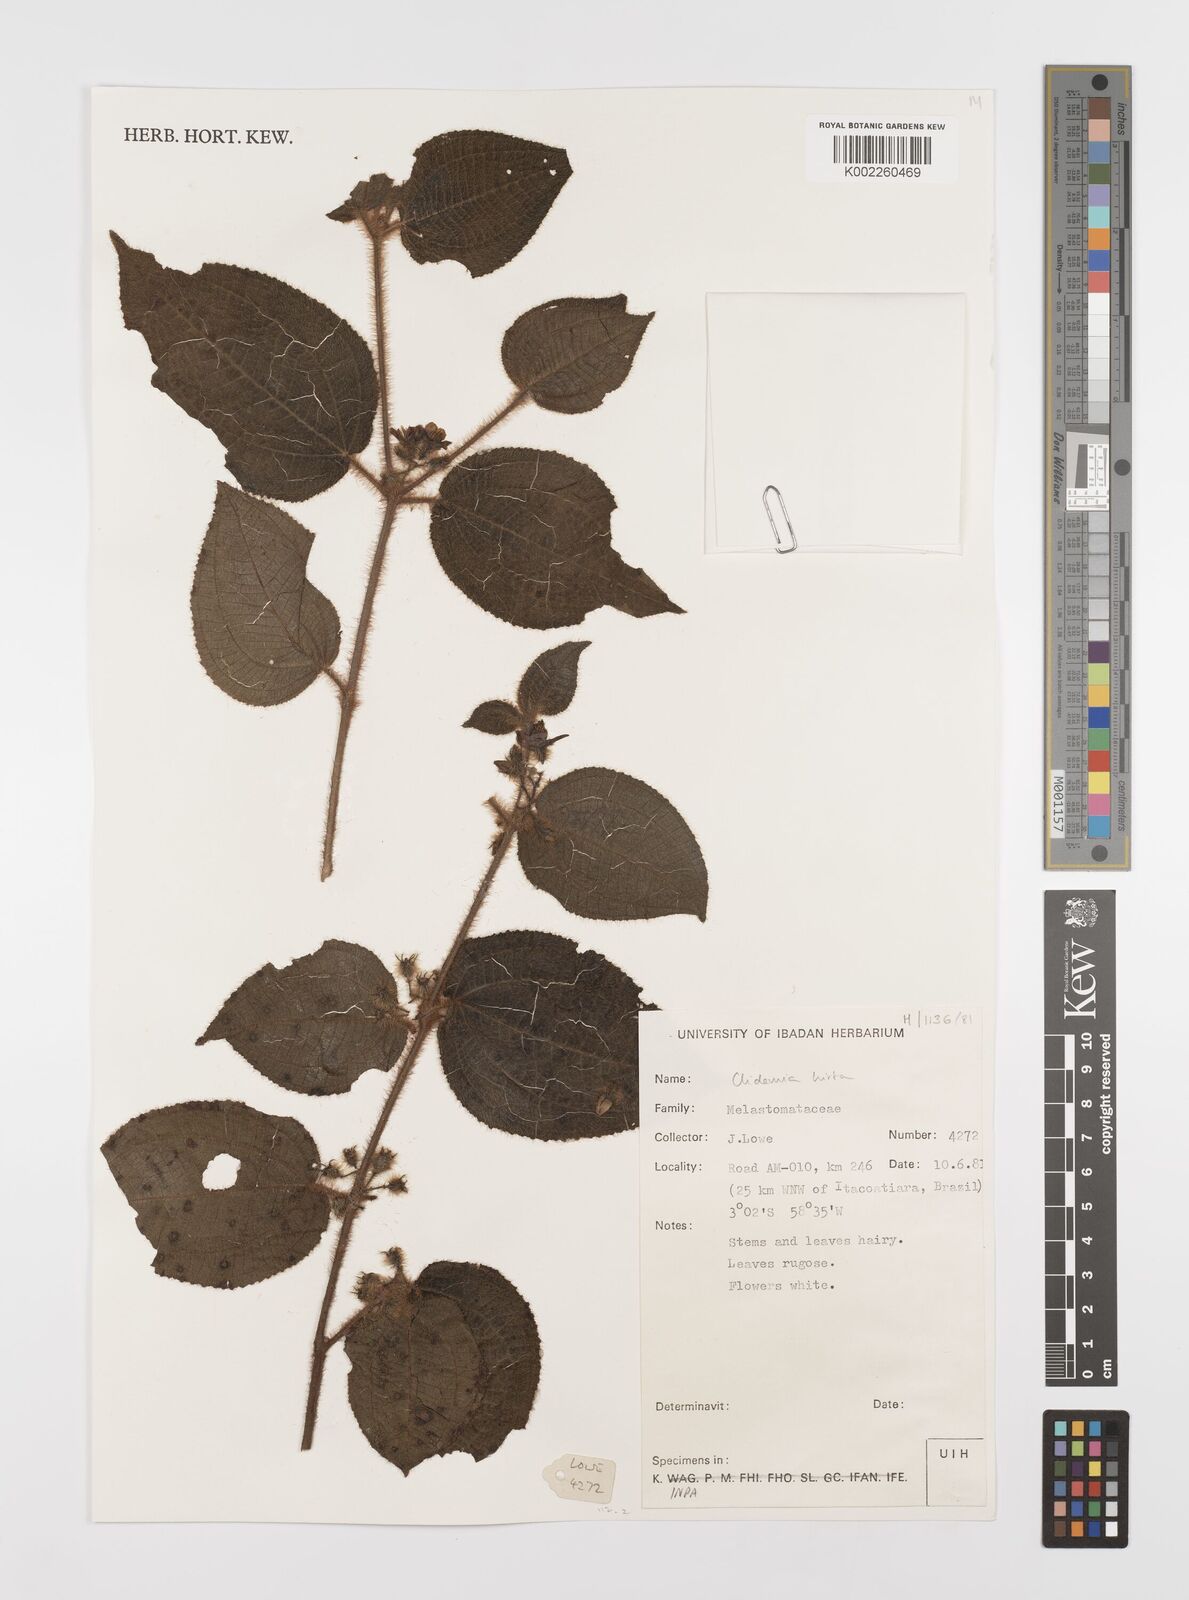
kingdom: Plantae
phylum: Tracheophyta
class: Magnoliopsida
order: Myrtales
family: Melastomataceae
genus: Miconia
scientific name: Miconia crenata
